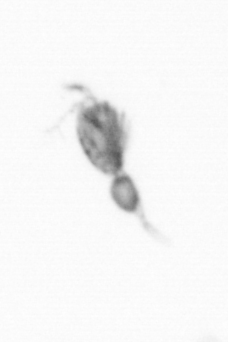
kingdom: Animalia
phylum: Arthropoda
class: Copepoda
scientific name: Copepoda
